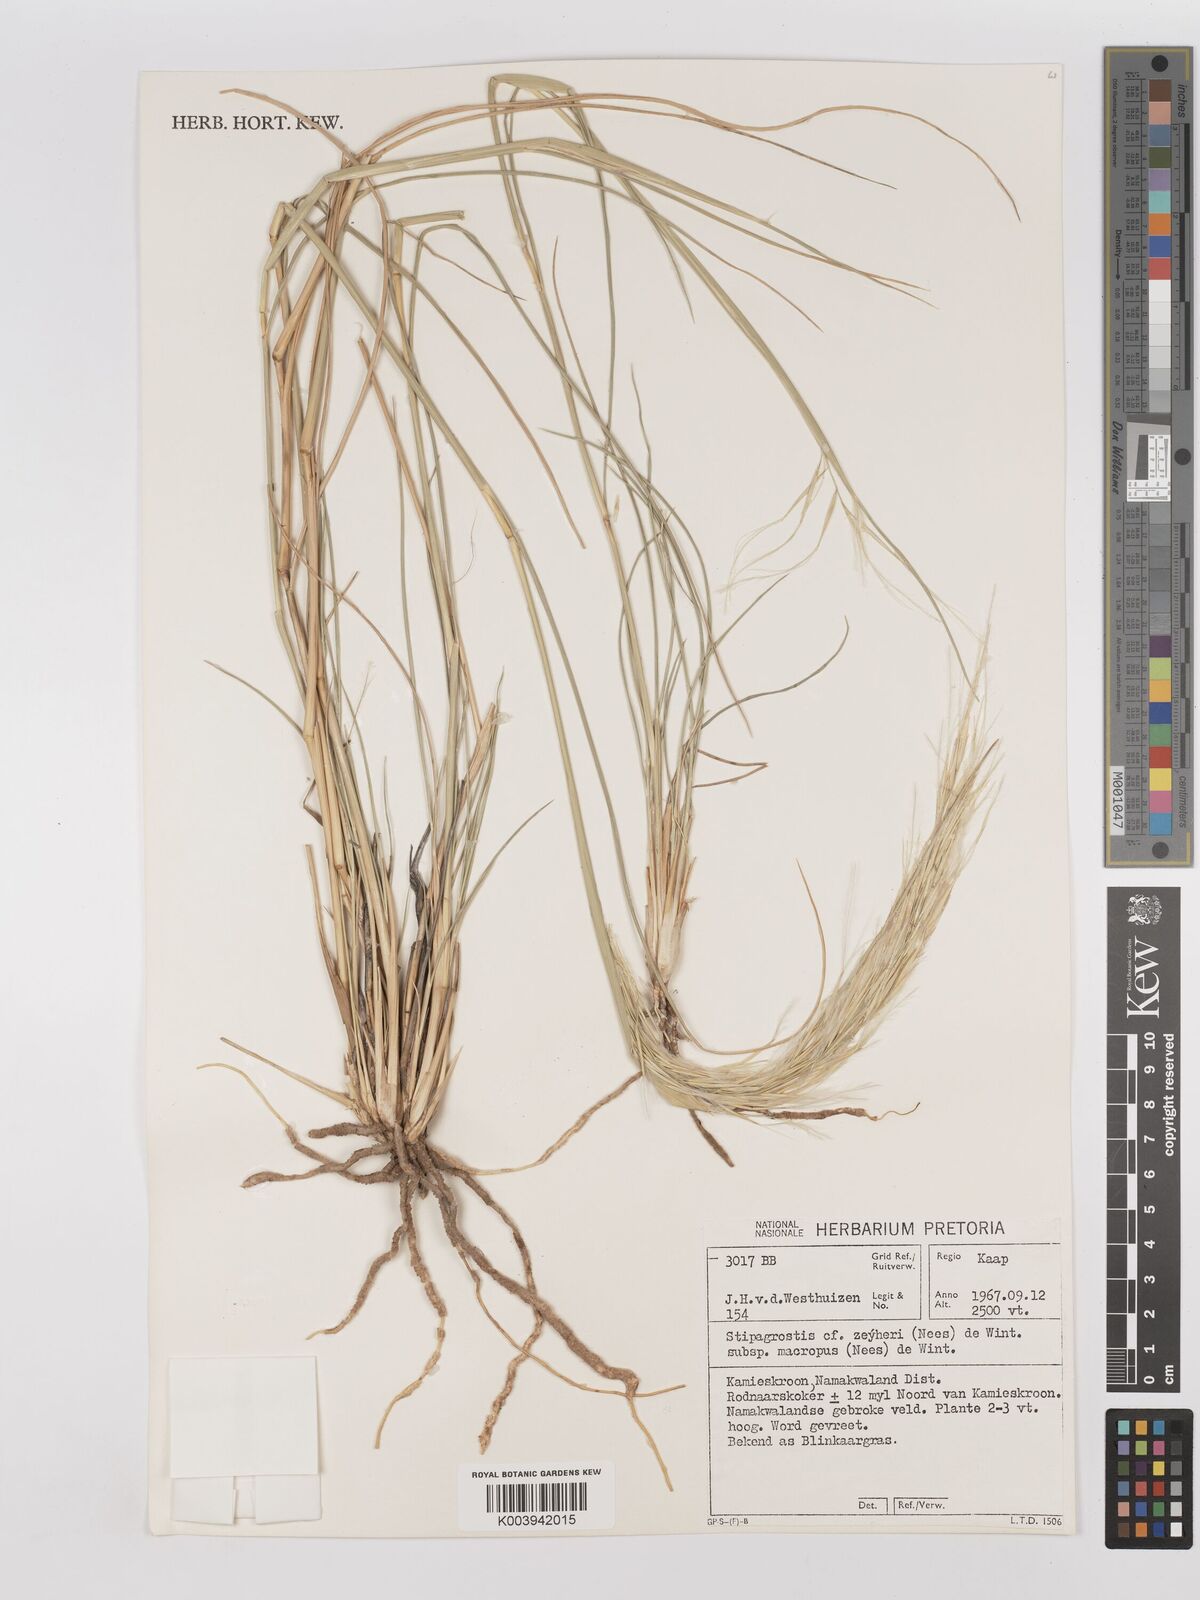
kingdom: Plantae
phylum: Tracheophyta
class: Liliopsida
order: Poales
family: Poaceae
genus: Stipagrostis
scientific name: Stipagrostis zeyheri
